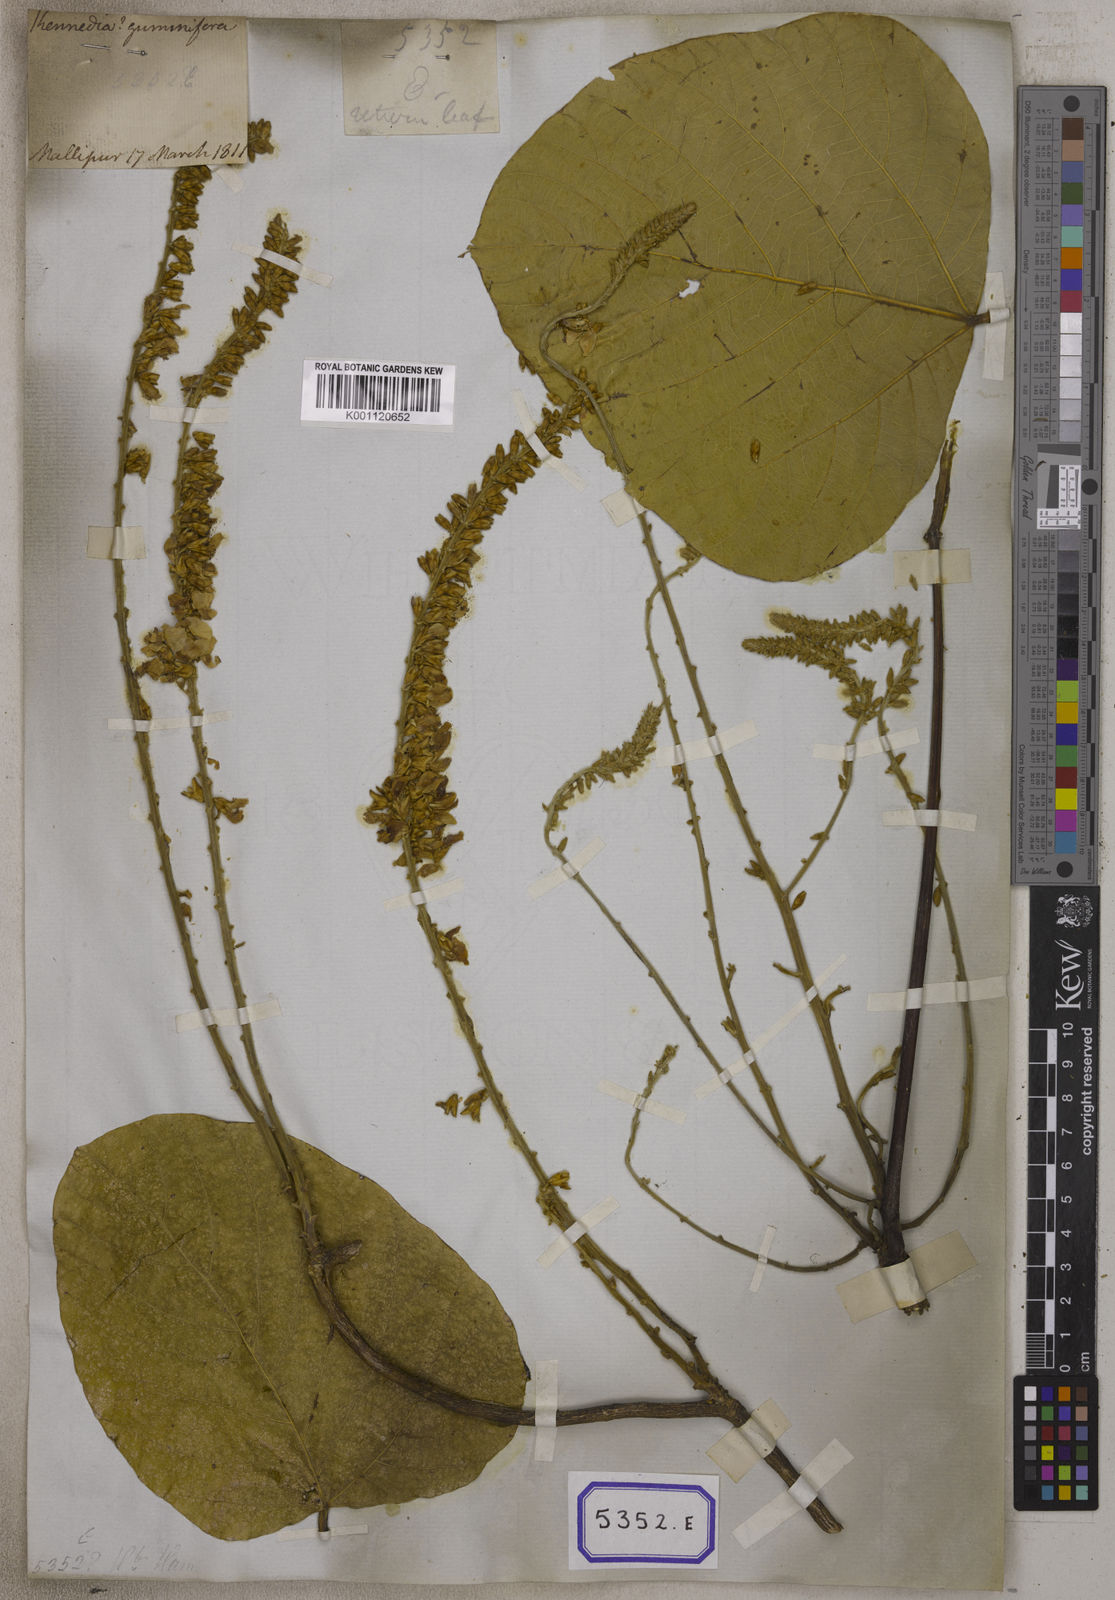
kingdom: Plantae
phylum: Tracheophyta
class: Magnoliopsida
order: Fabales
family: Fabaceae
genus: Pueraria
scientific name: Pueraria tuberosa
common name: Nepalese kudzu
